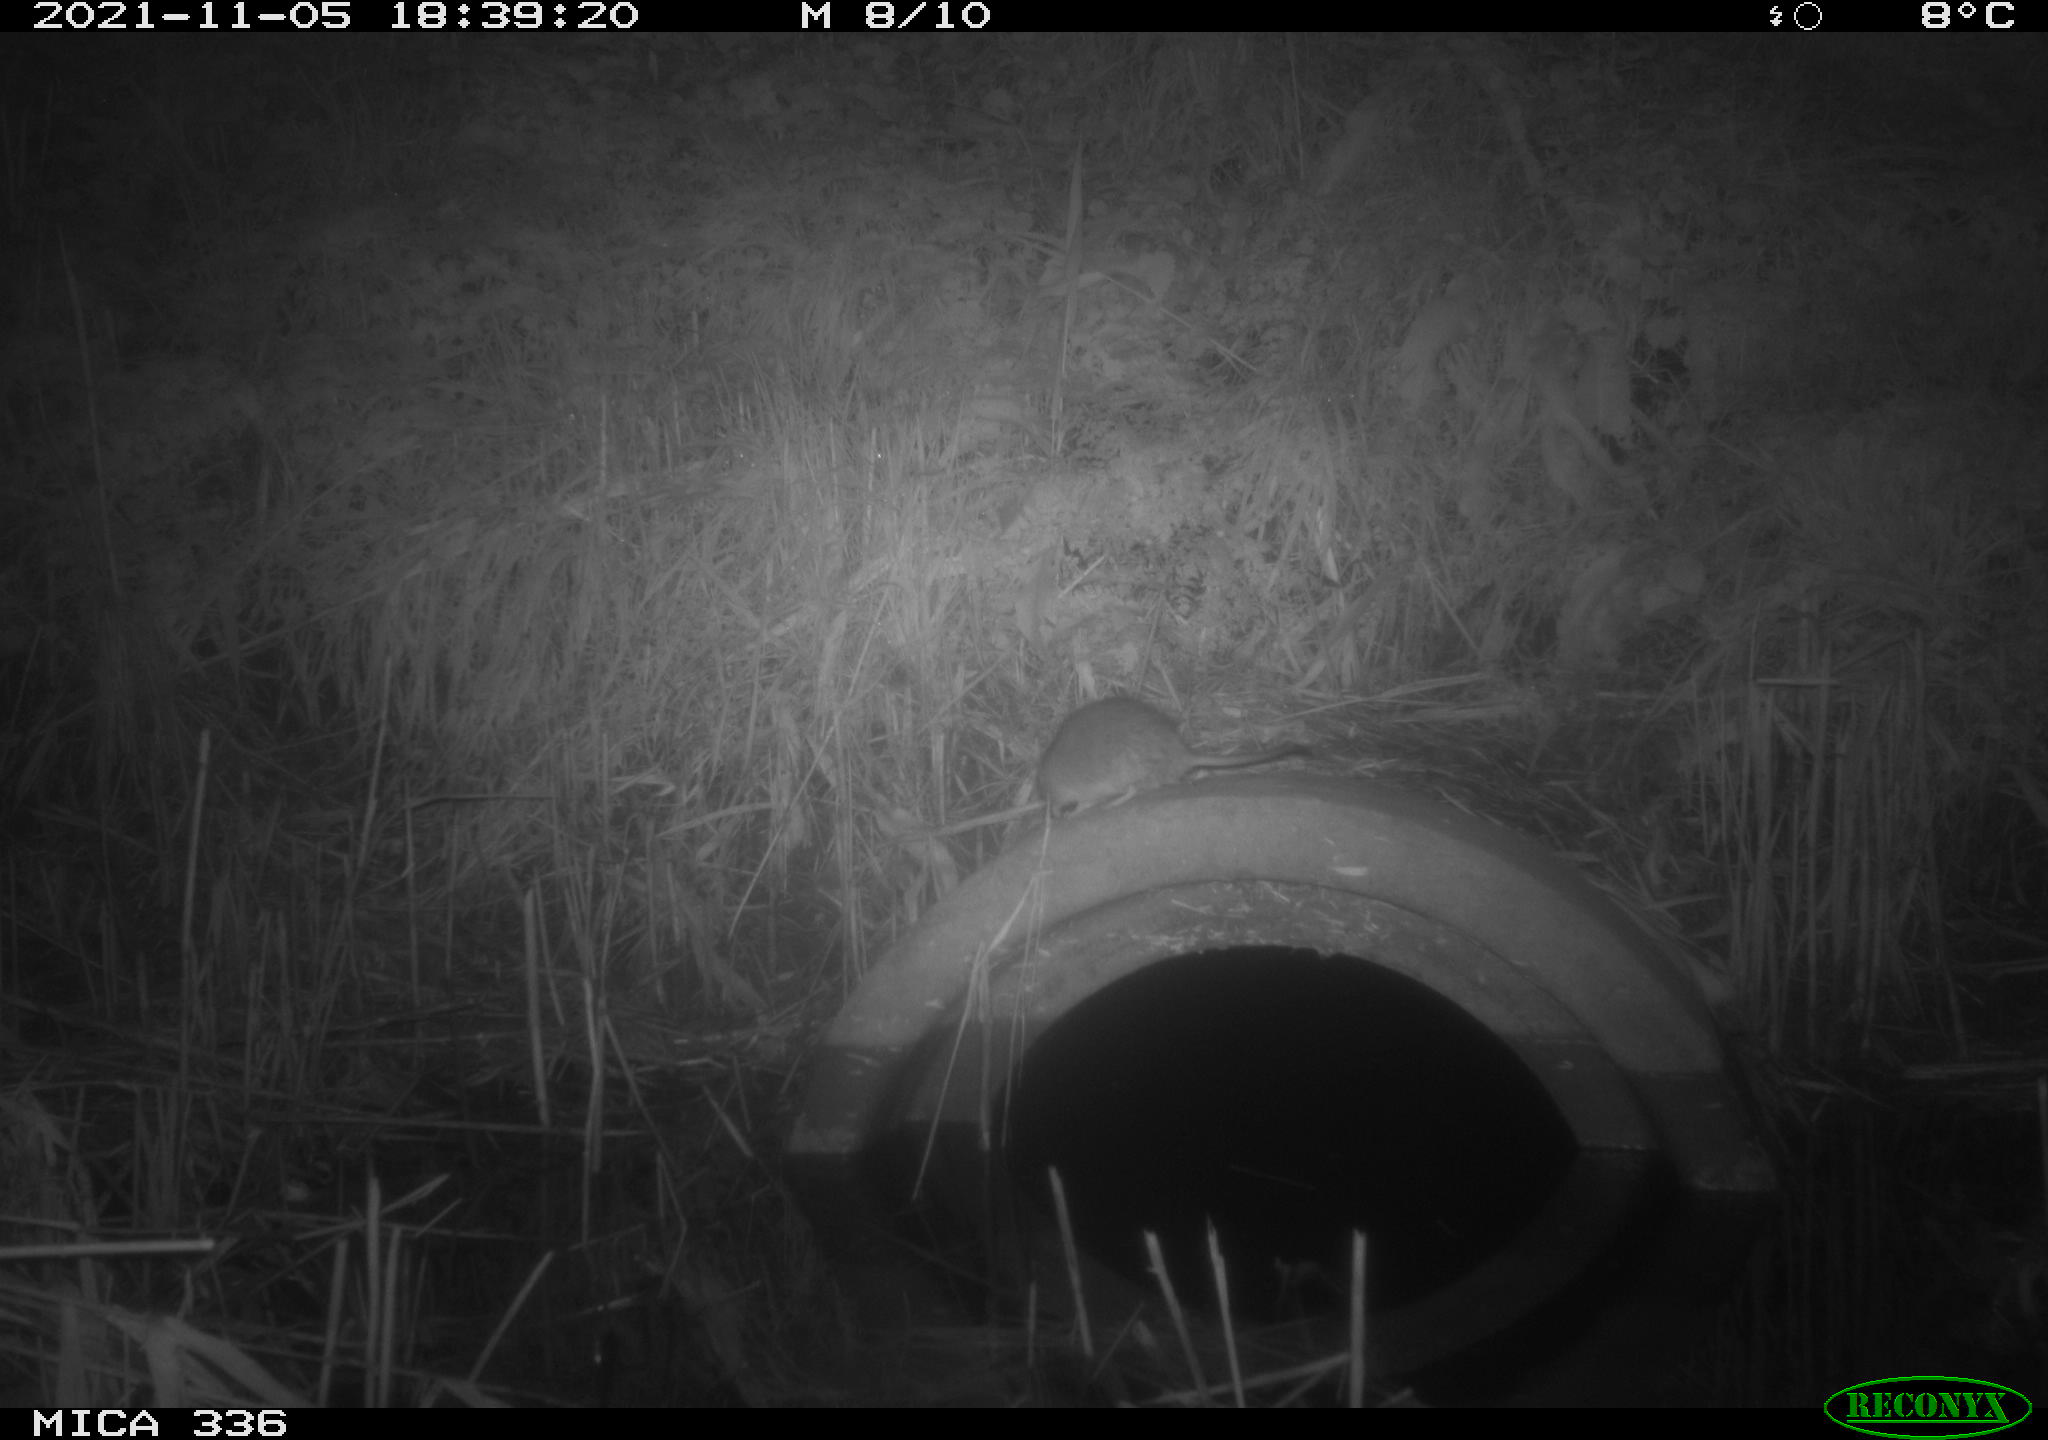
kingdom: Animalia
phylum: Chordata
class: Mammalia
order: Rodentia
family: Muridae
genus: Rattus
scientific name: Rattus norvegicus
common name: Brown rat
